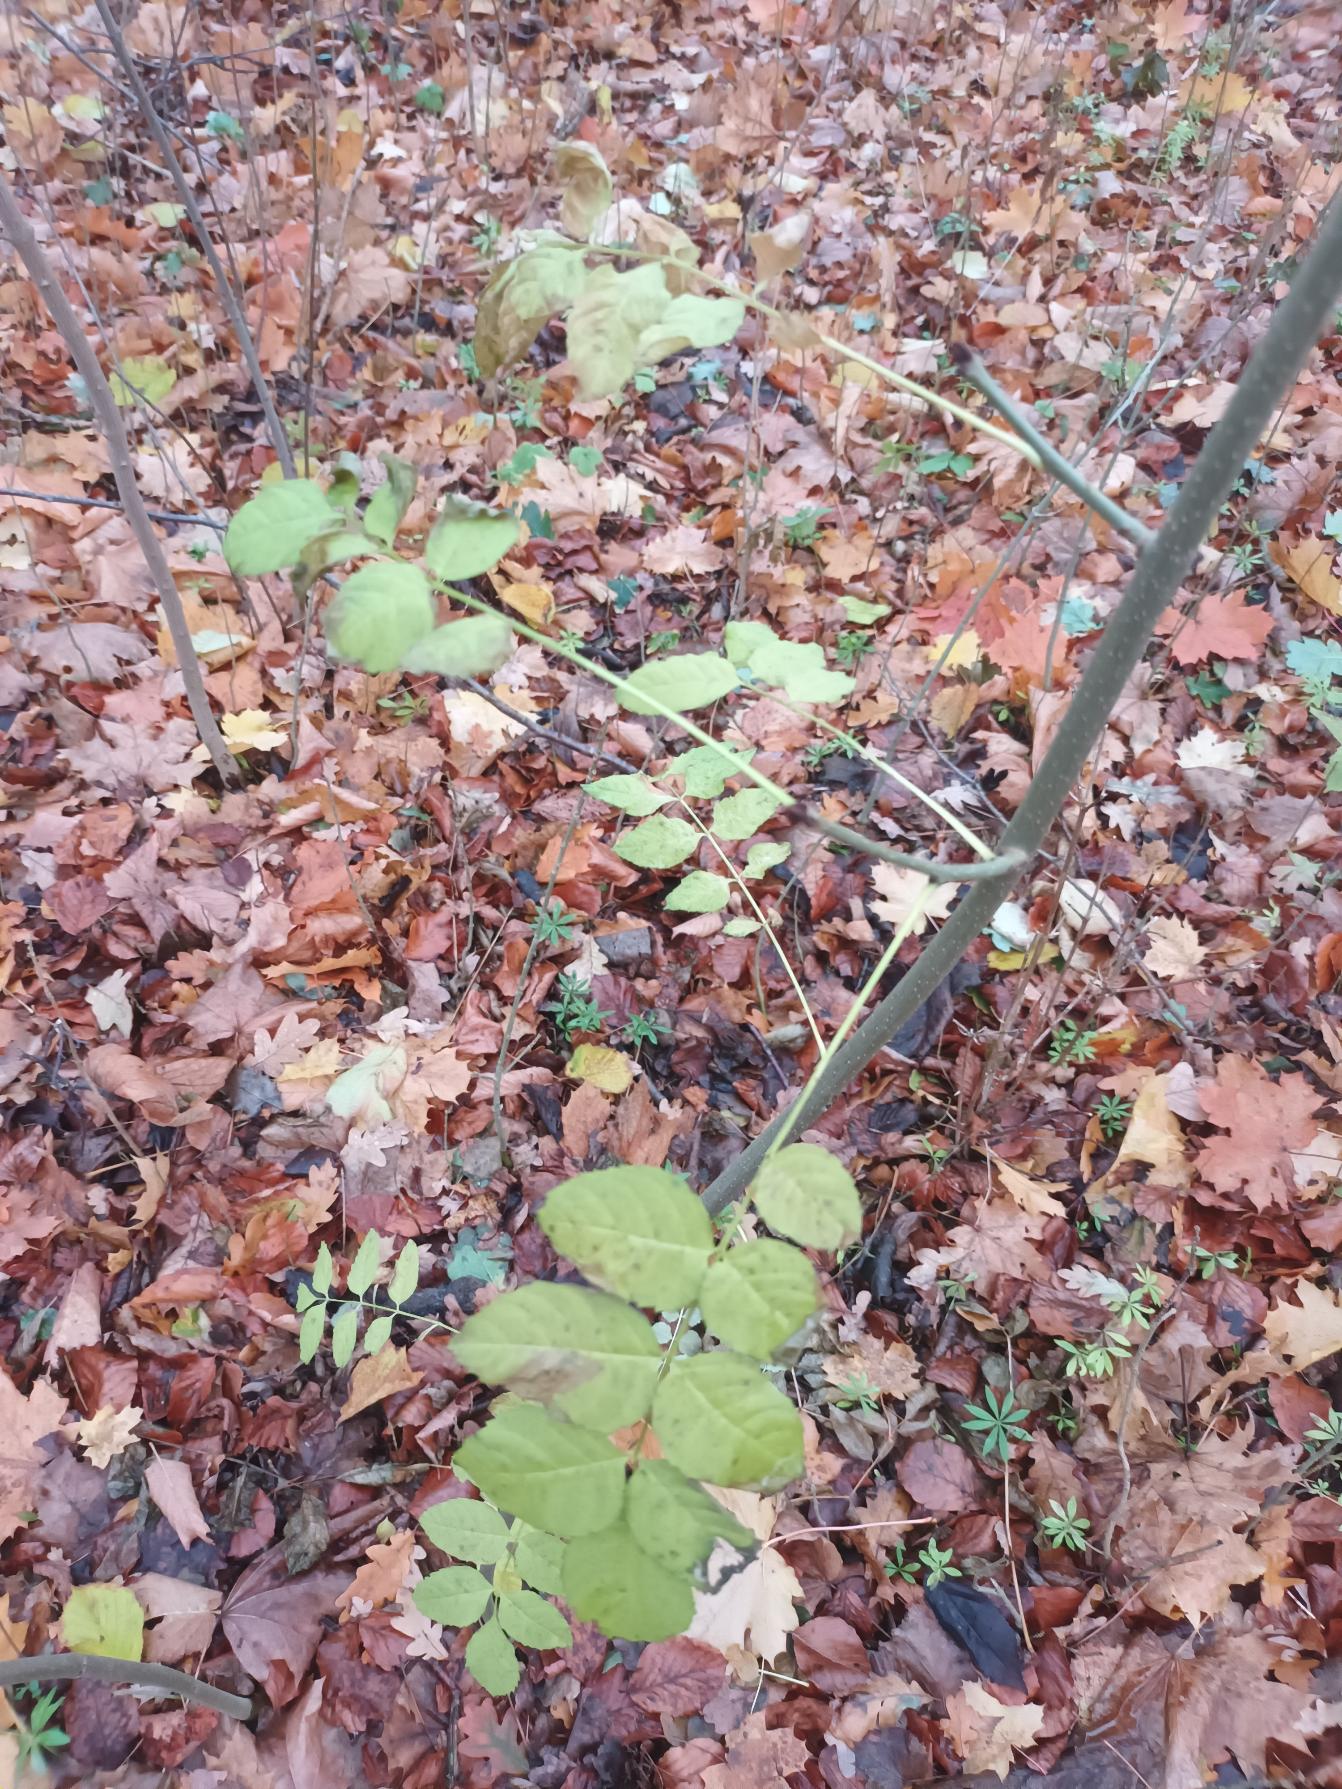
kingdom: Plantae
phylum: Tracheophyta
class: Magnoliopsida
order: Lamiales
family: Oleaceae
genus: Fraxinus
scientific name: Fraxinus excelsior
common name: Ask
